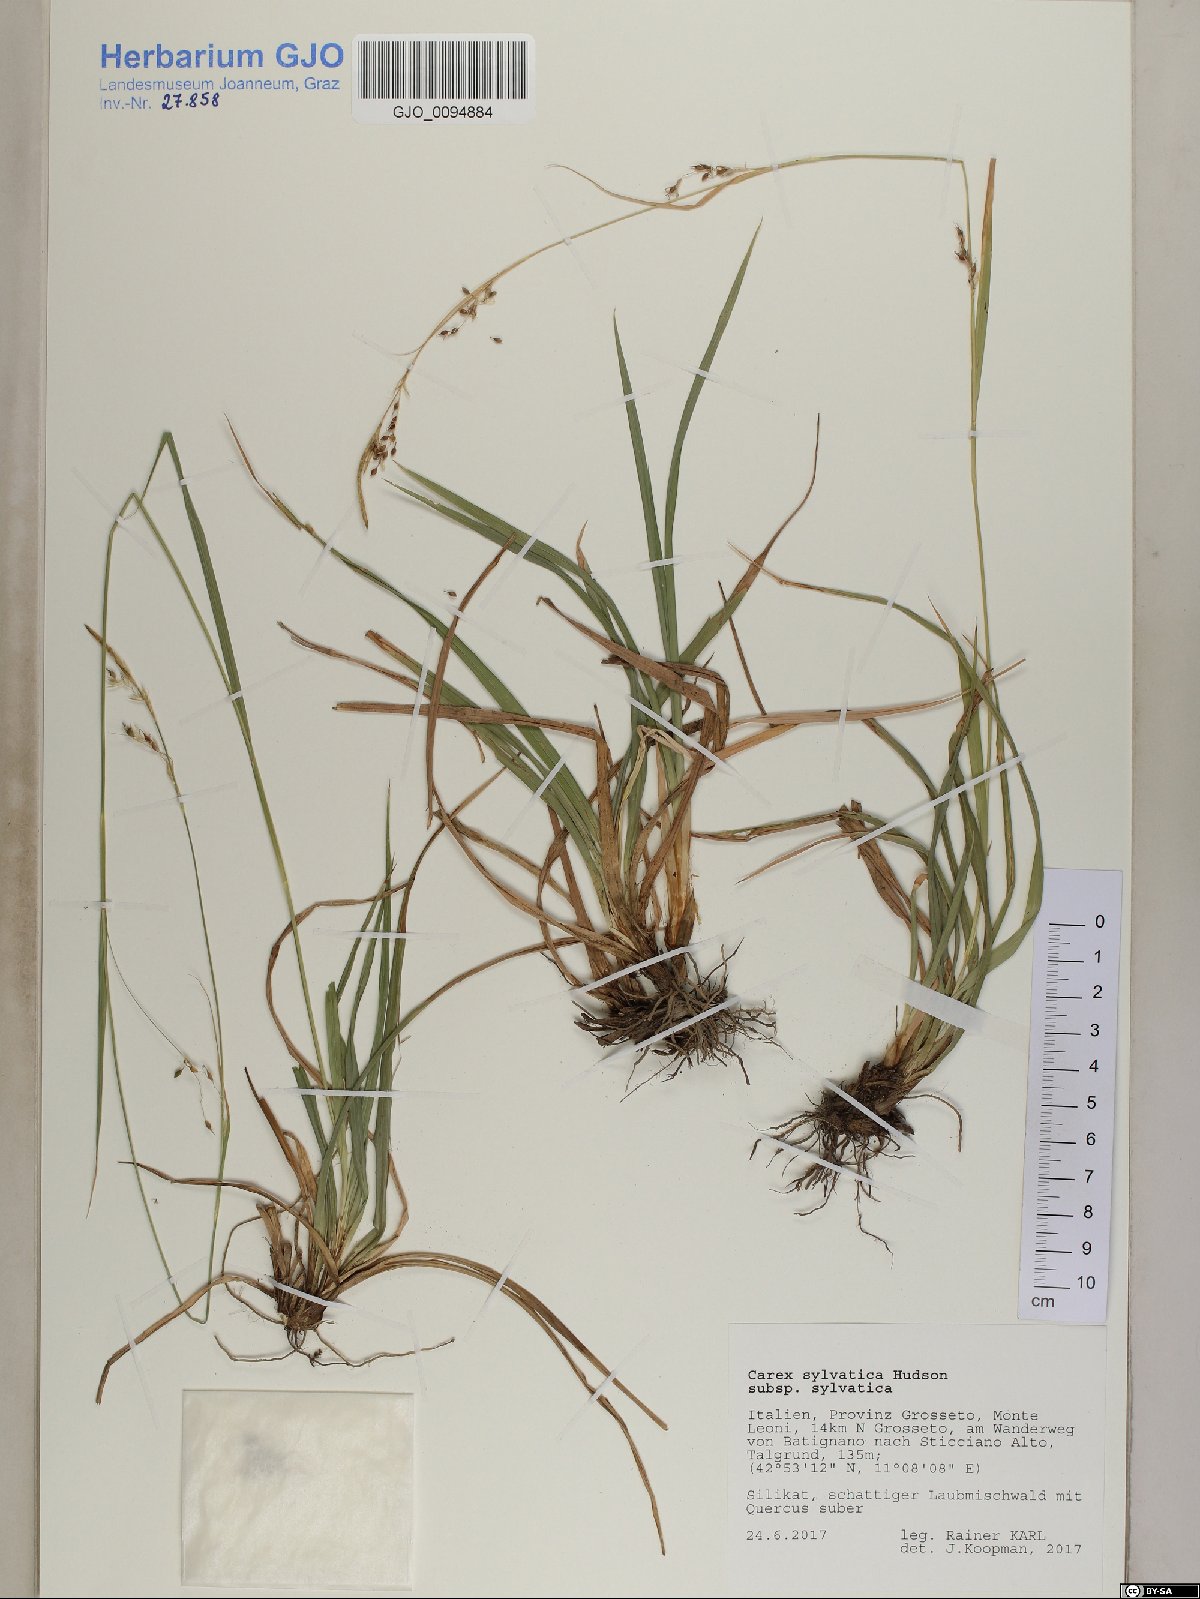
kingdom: Plantae
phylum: Tracheophyta
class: Liliopsida
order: Poales
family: Cyperaceae
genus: Carex
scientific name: Carex sylvatica
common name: Wood-sedge
